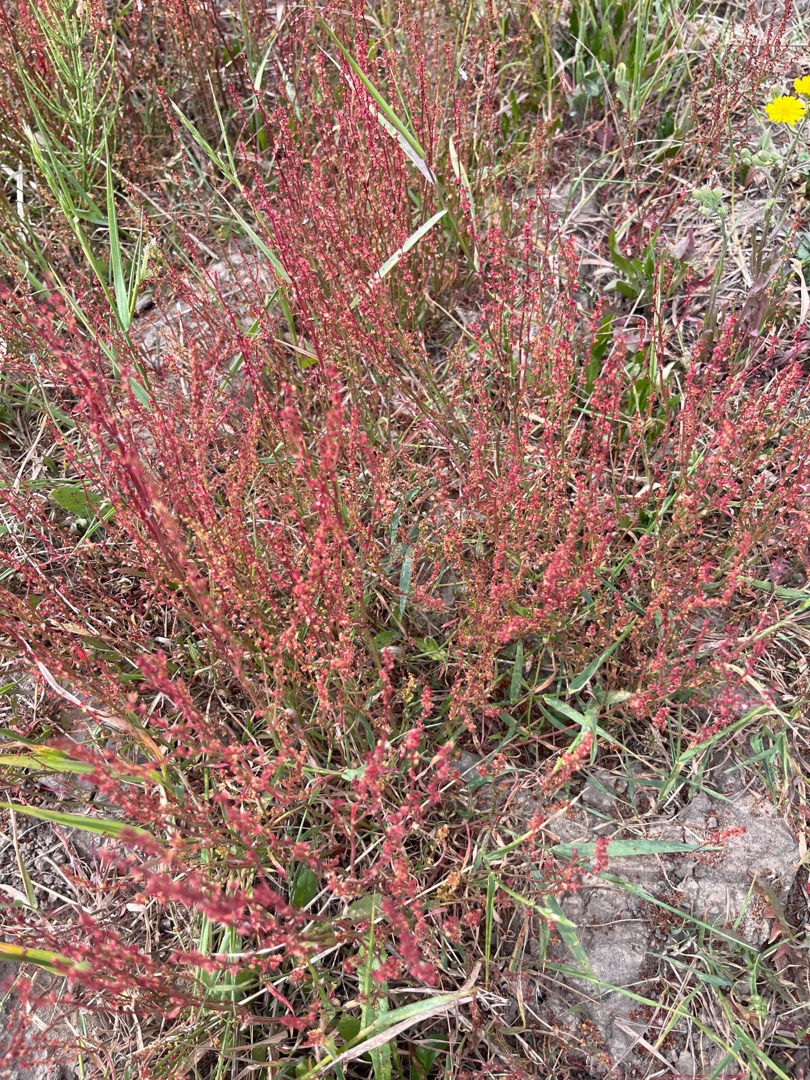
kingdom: Plantae
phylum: Tracheophyta
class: Magnoliopsida
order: Caryophyllales
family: Polygonaceae
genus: Rumex
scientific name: Rumex acetosella
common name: Rødknæ
